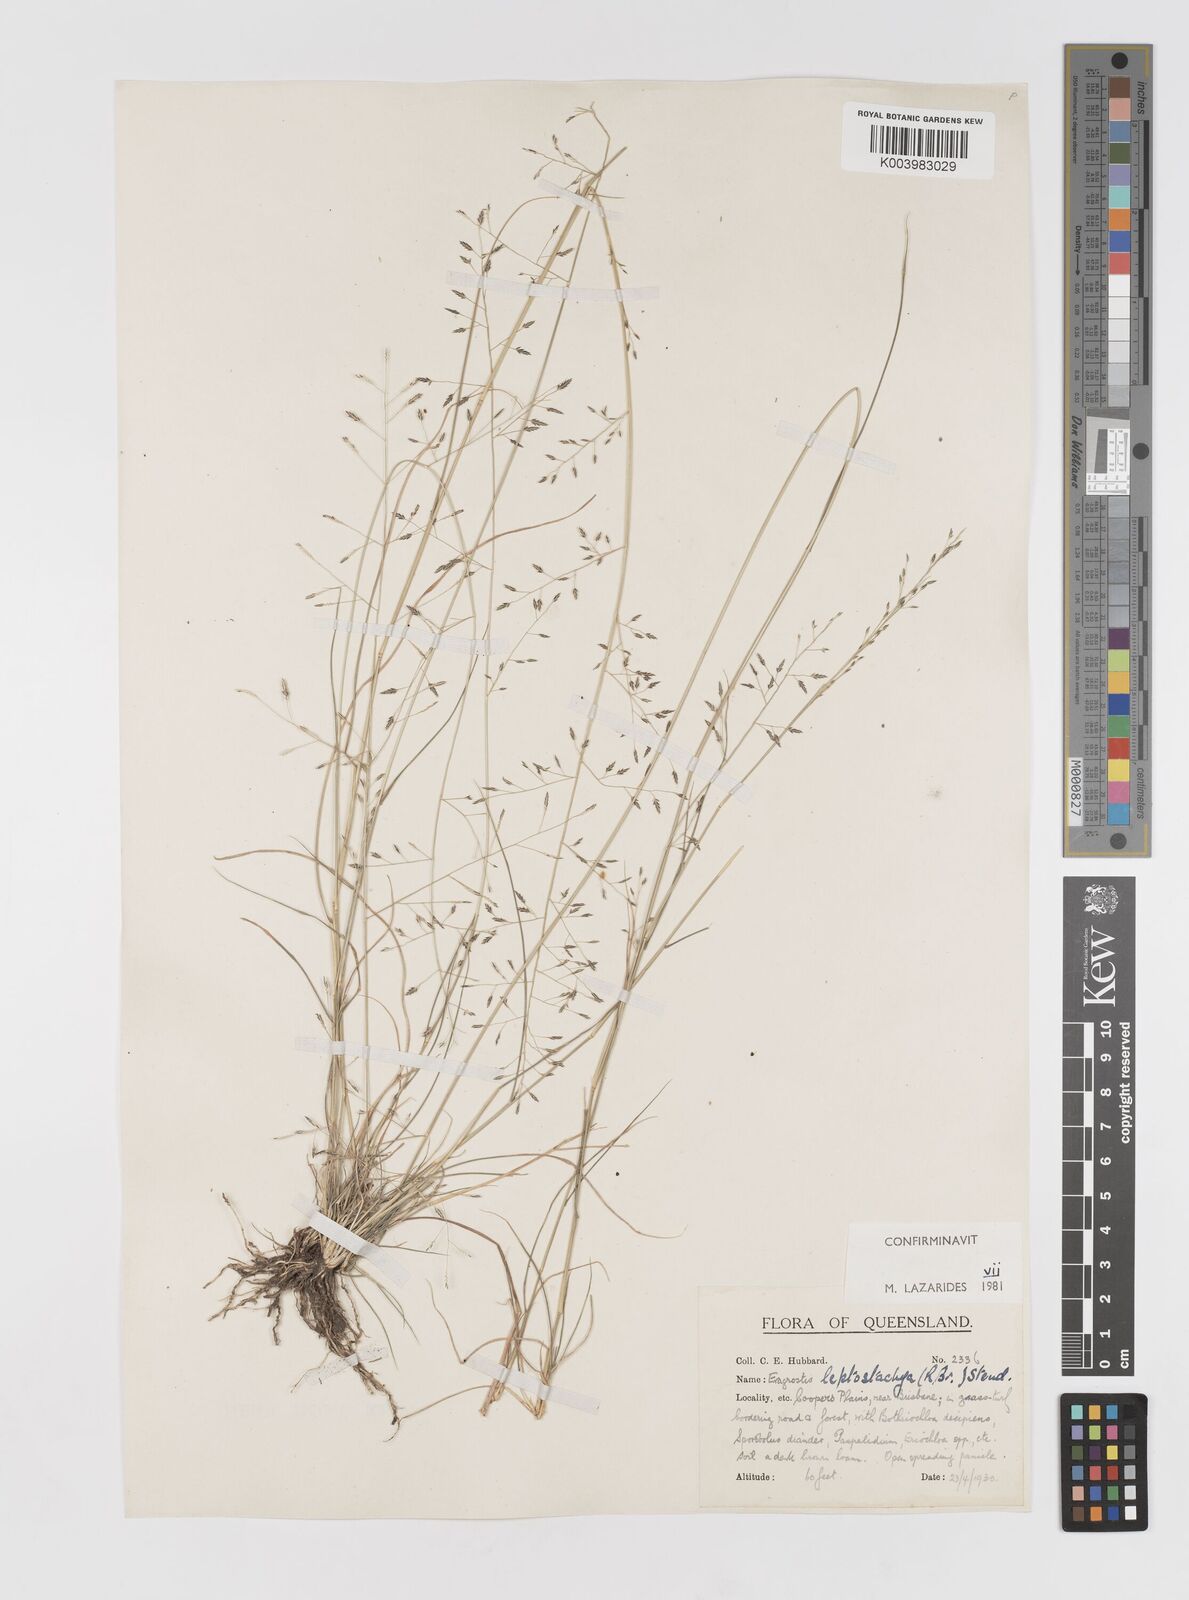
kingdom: Plantae
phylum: Tracheophyta
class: Liliopsida
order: Poales
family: Poaceae
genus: Eragrostis
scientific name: Eragrostis leptostachya
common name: Australian lovegrass
